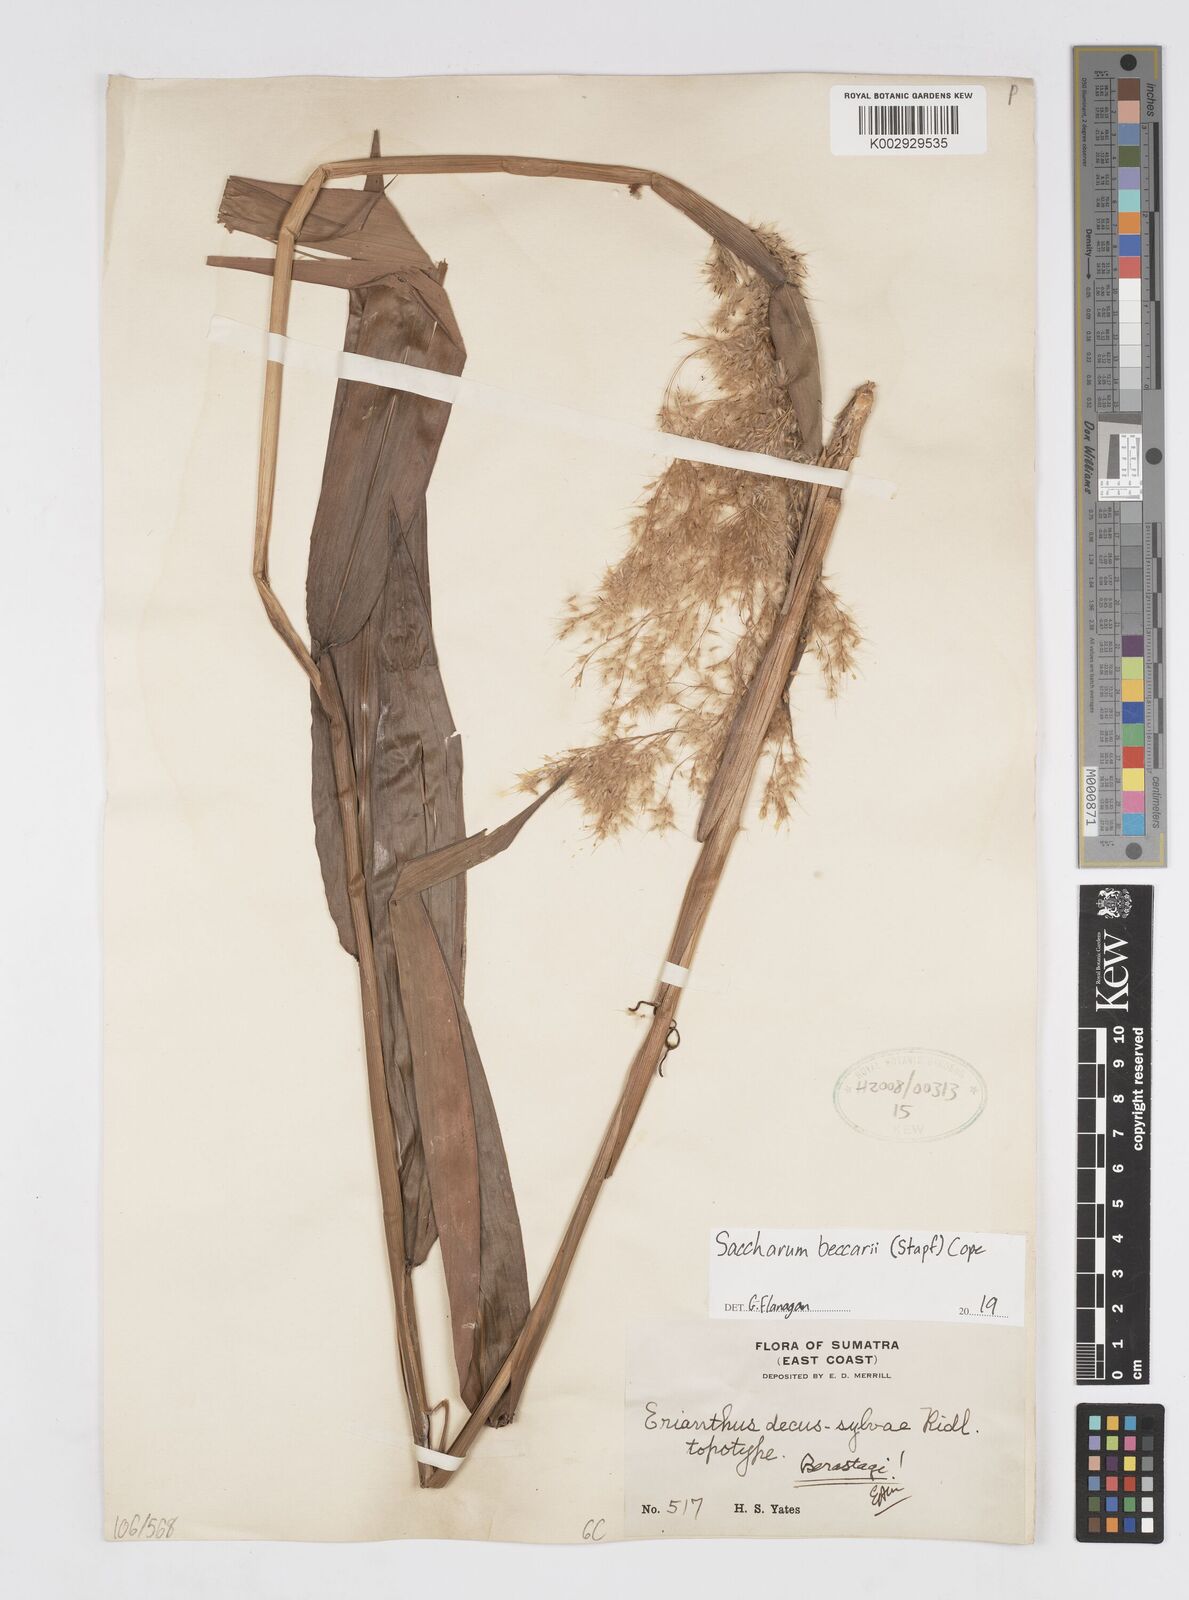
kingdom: Plantae
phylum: Tracheophyta
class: Liliopsida
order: Poales
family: Poaceae
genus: Saccharum
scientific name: Saccharum
